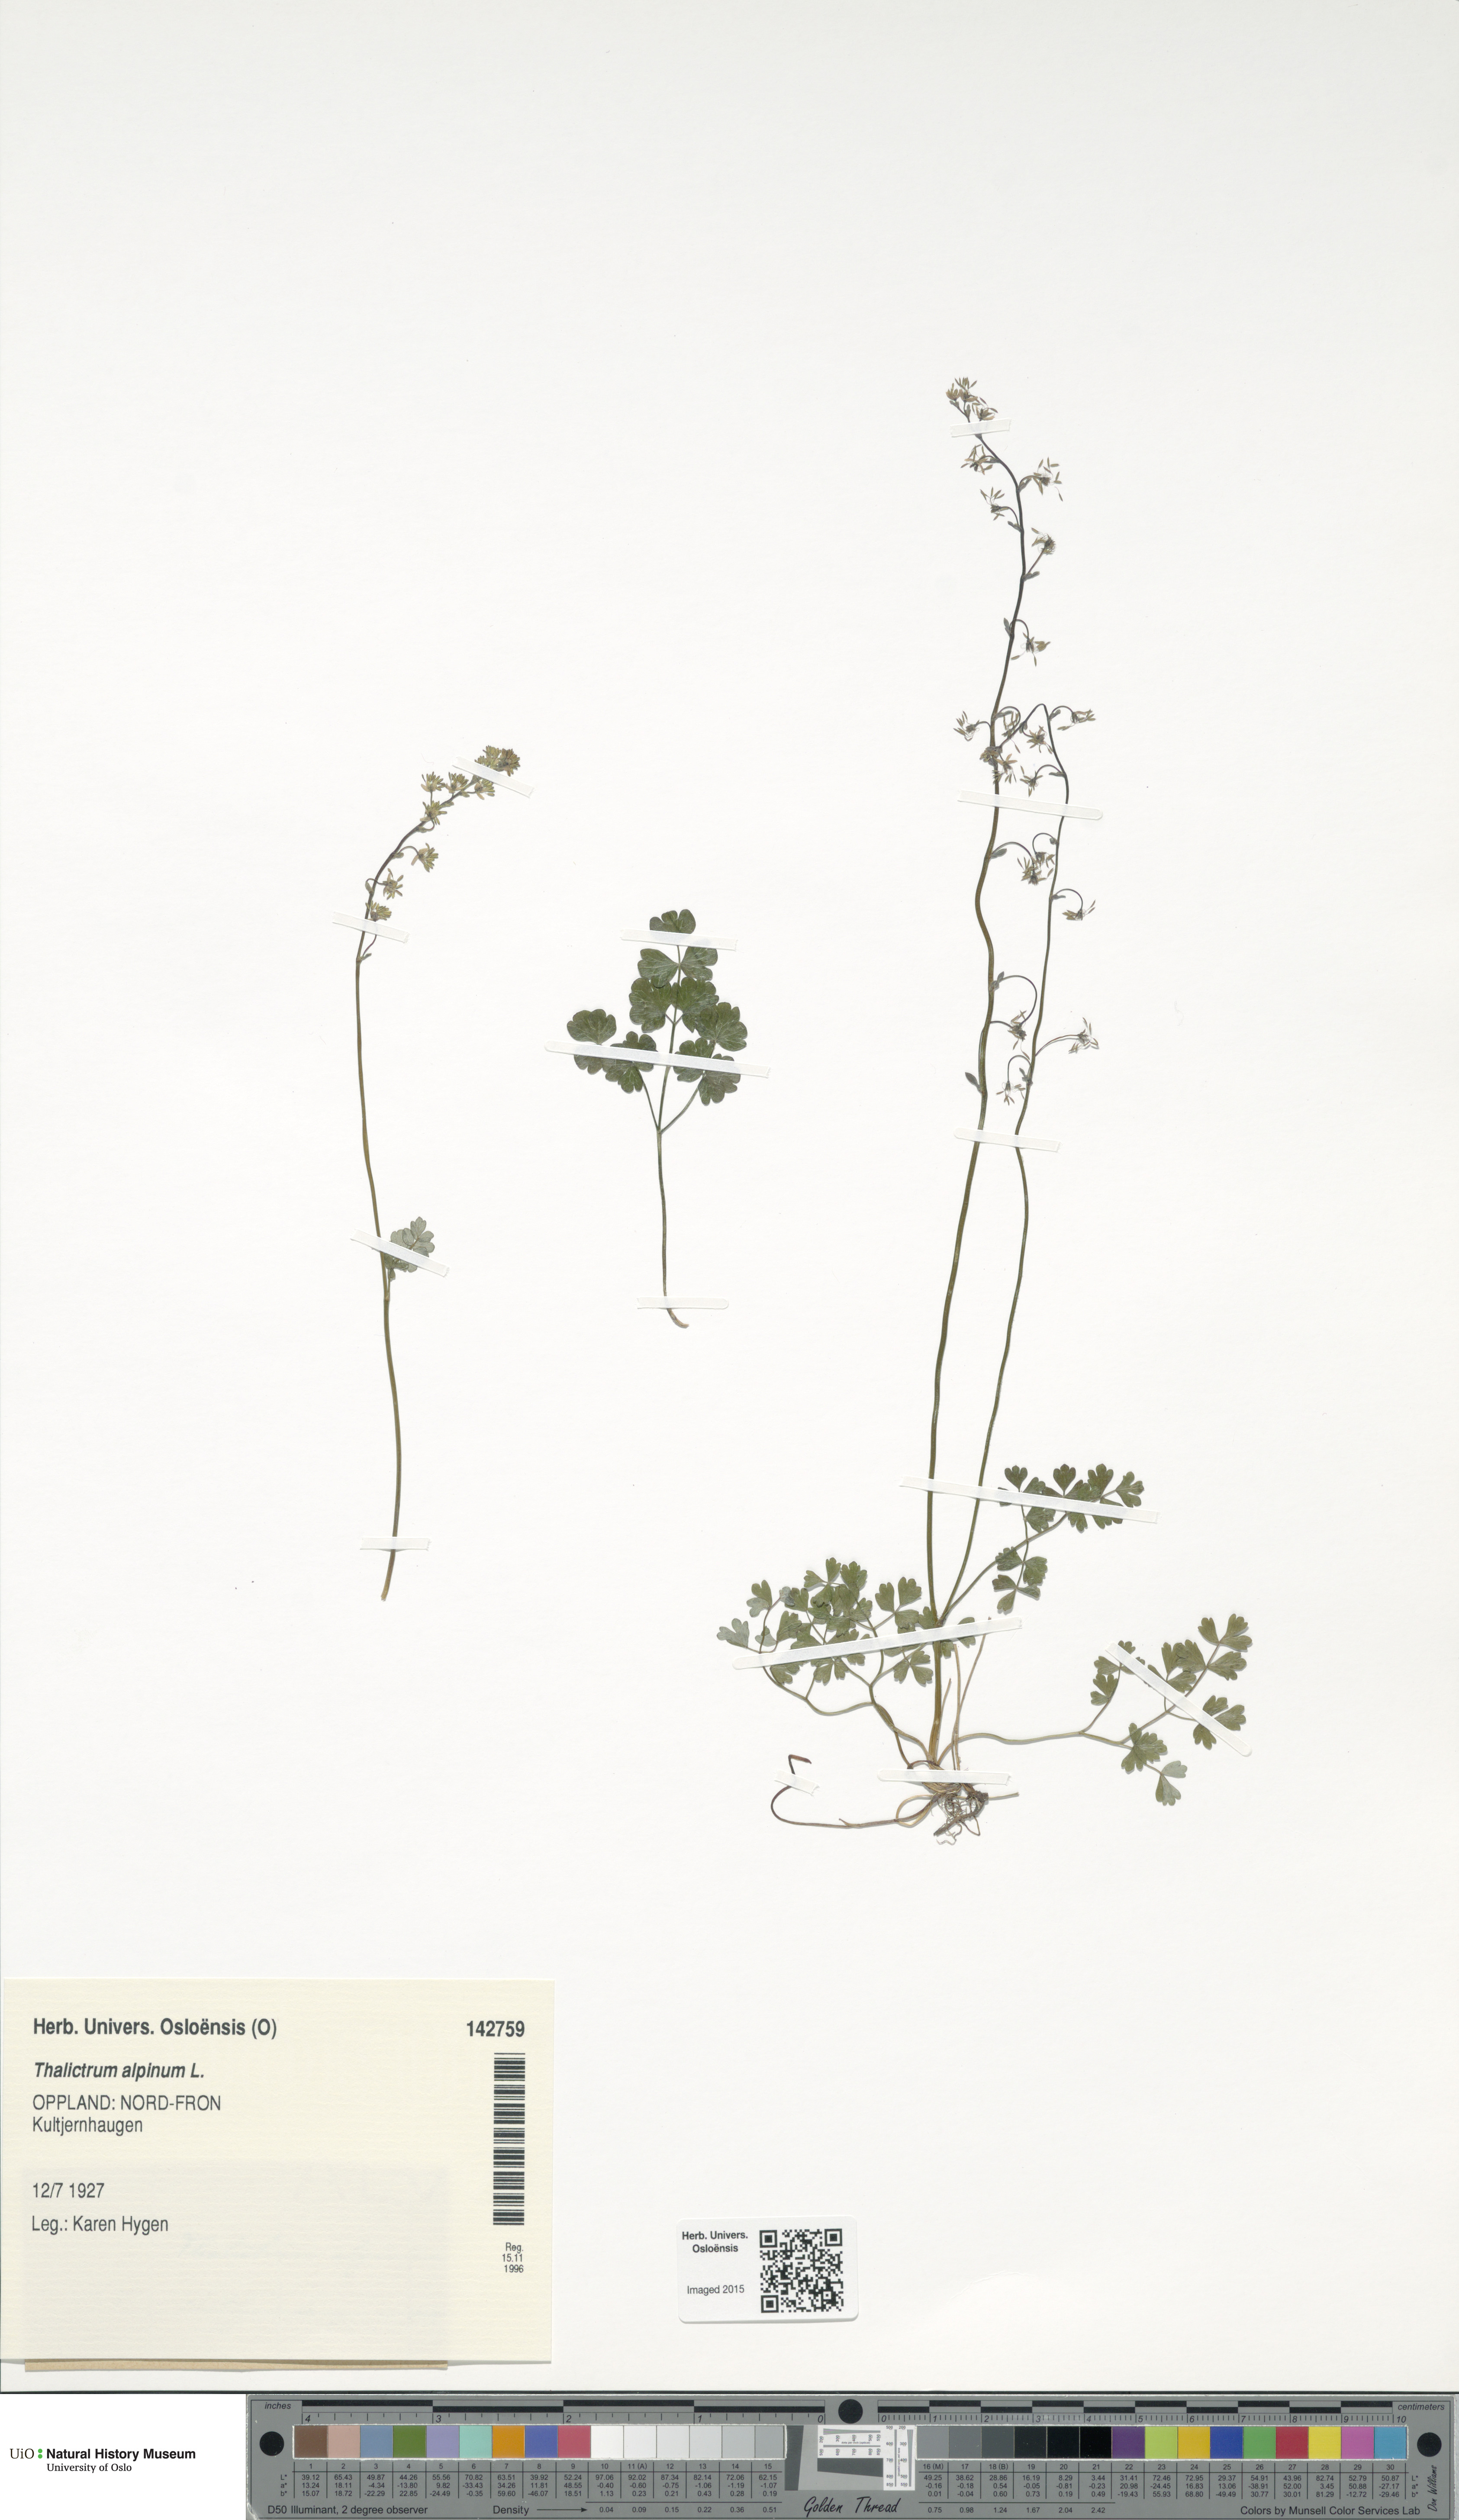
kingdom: Plantae
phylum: Tracheophyta
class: Magnoliopsida
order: Ranunculales
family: Ranunculaceae
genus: Thalictrum
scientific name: Thalictrum alpinum
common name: Alpine meadow-rue
